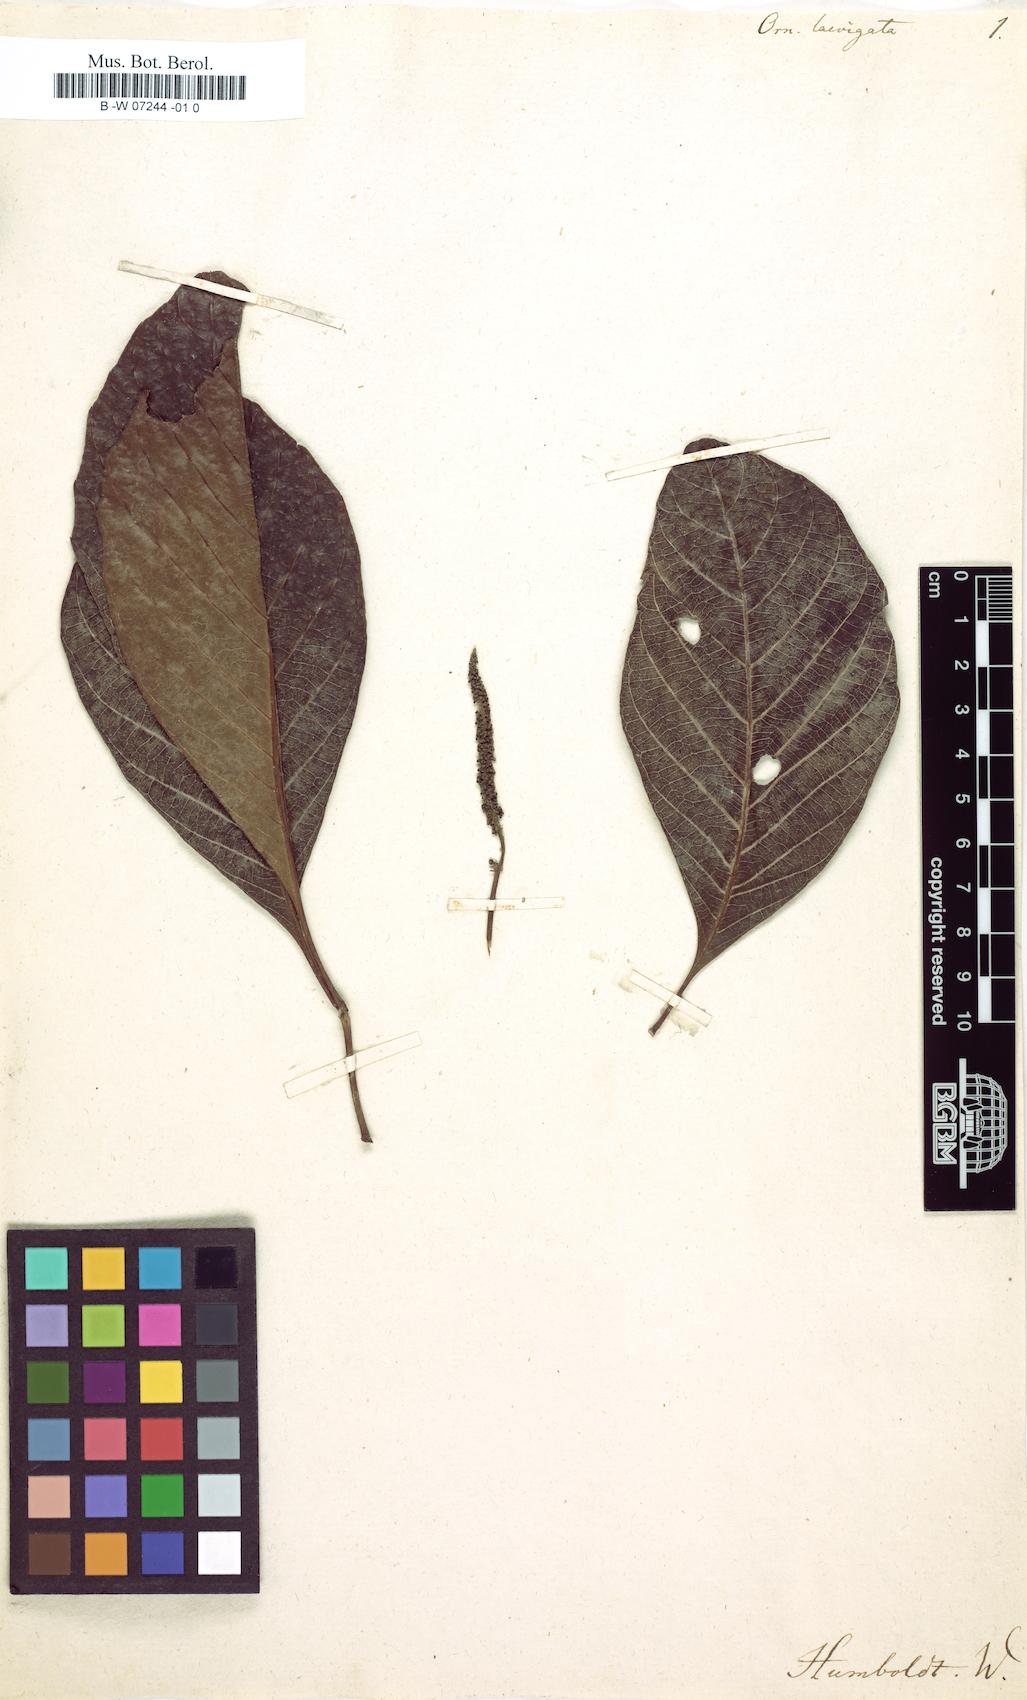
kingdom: Plantae
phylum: Tracheophyta
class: Magnoliopsida
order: Sapindales
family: Sapindaceae
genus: Allophylus
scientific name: Allophylus
